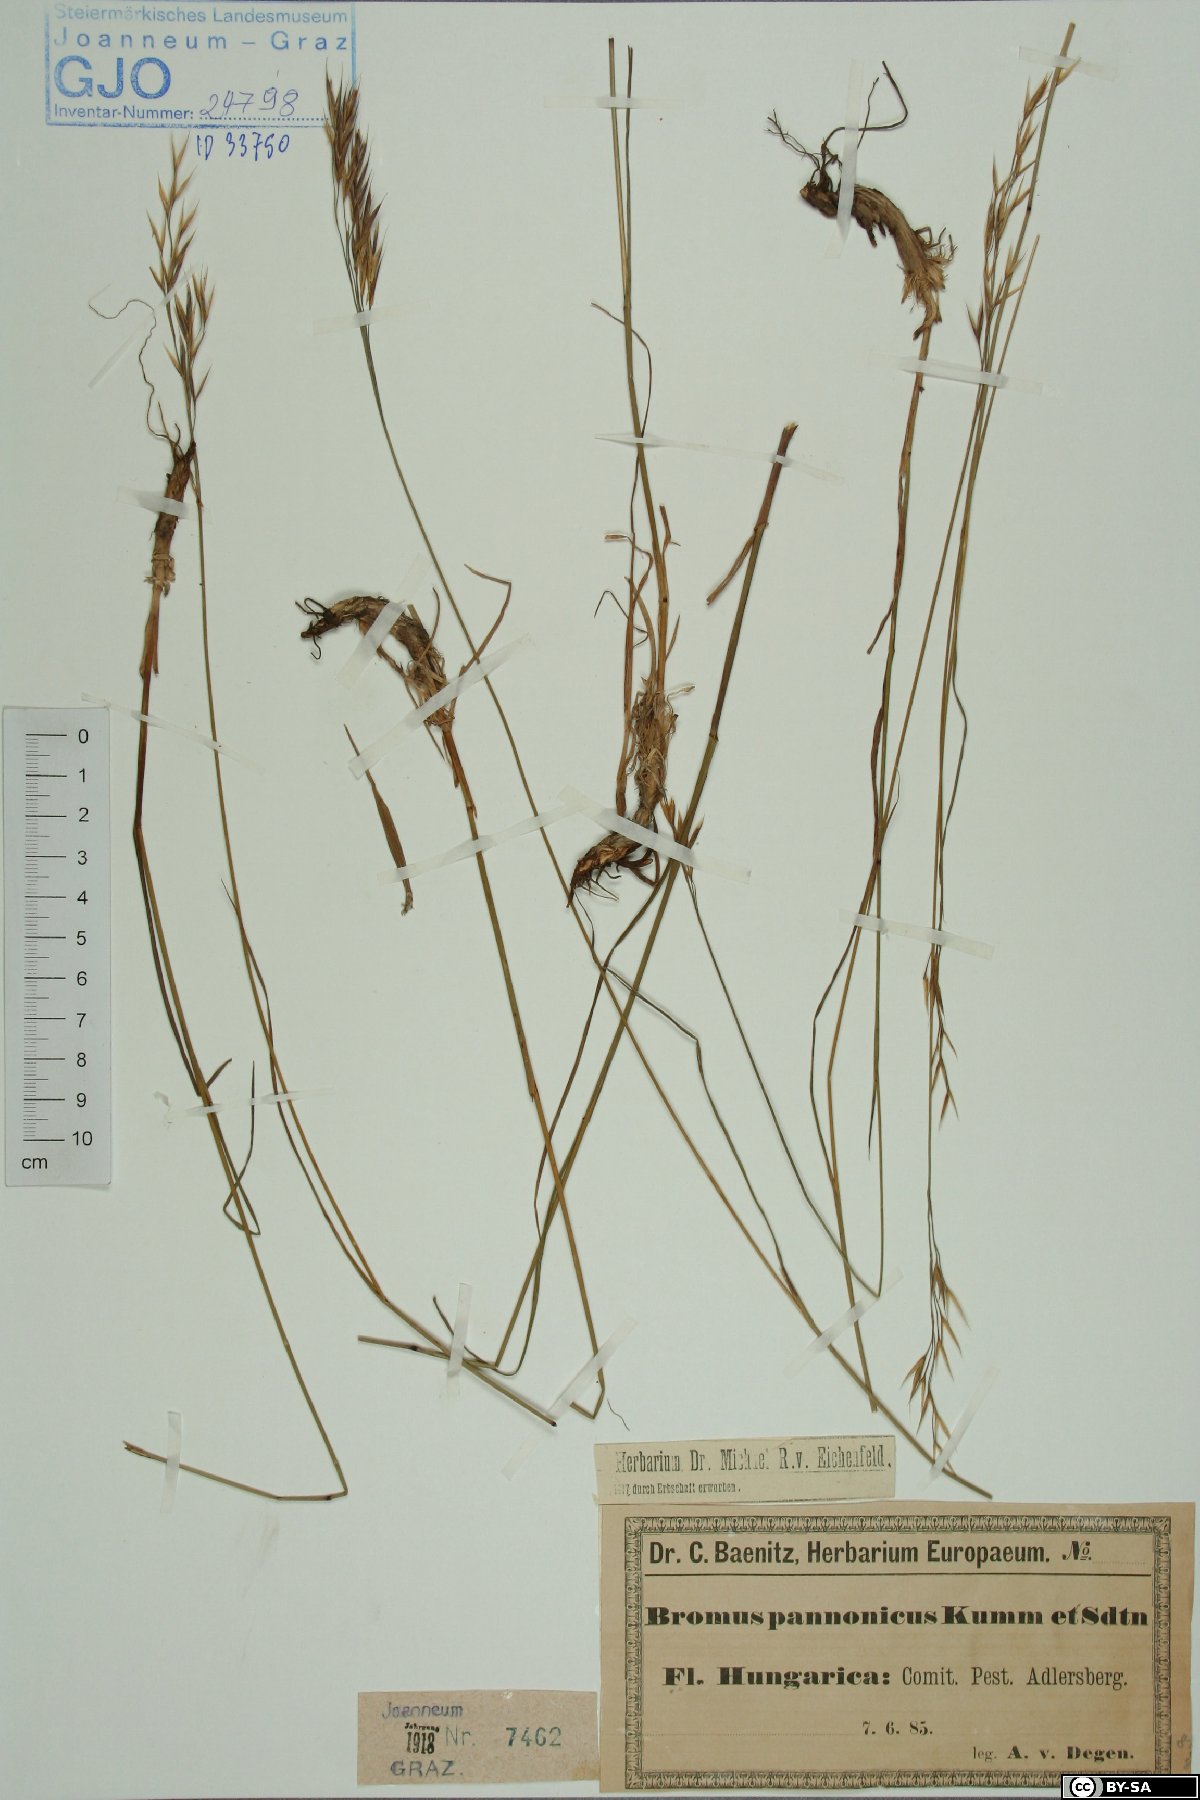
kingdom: Plantae
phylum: Tracheophyta
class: Liliopsida
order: Poales
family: Poaceae
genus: Bromus
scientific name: Bromus pannonicus
